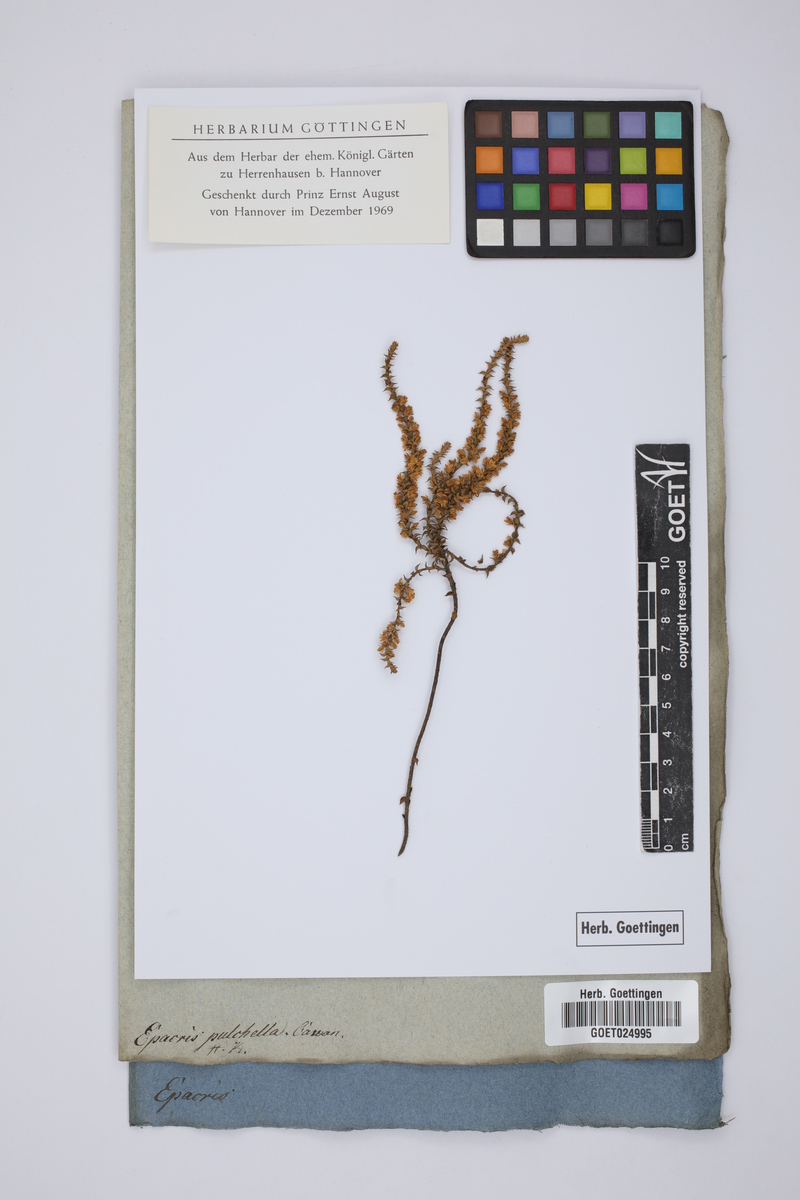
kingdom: Plantae
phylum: Tracheophyta
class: Magnoliopsida
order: Ericales
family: Ericaceae
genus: Epacris
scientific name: Epacris pulchella
